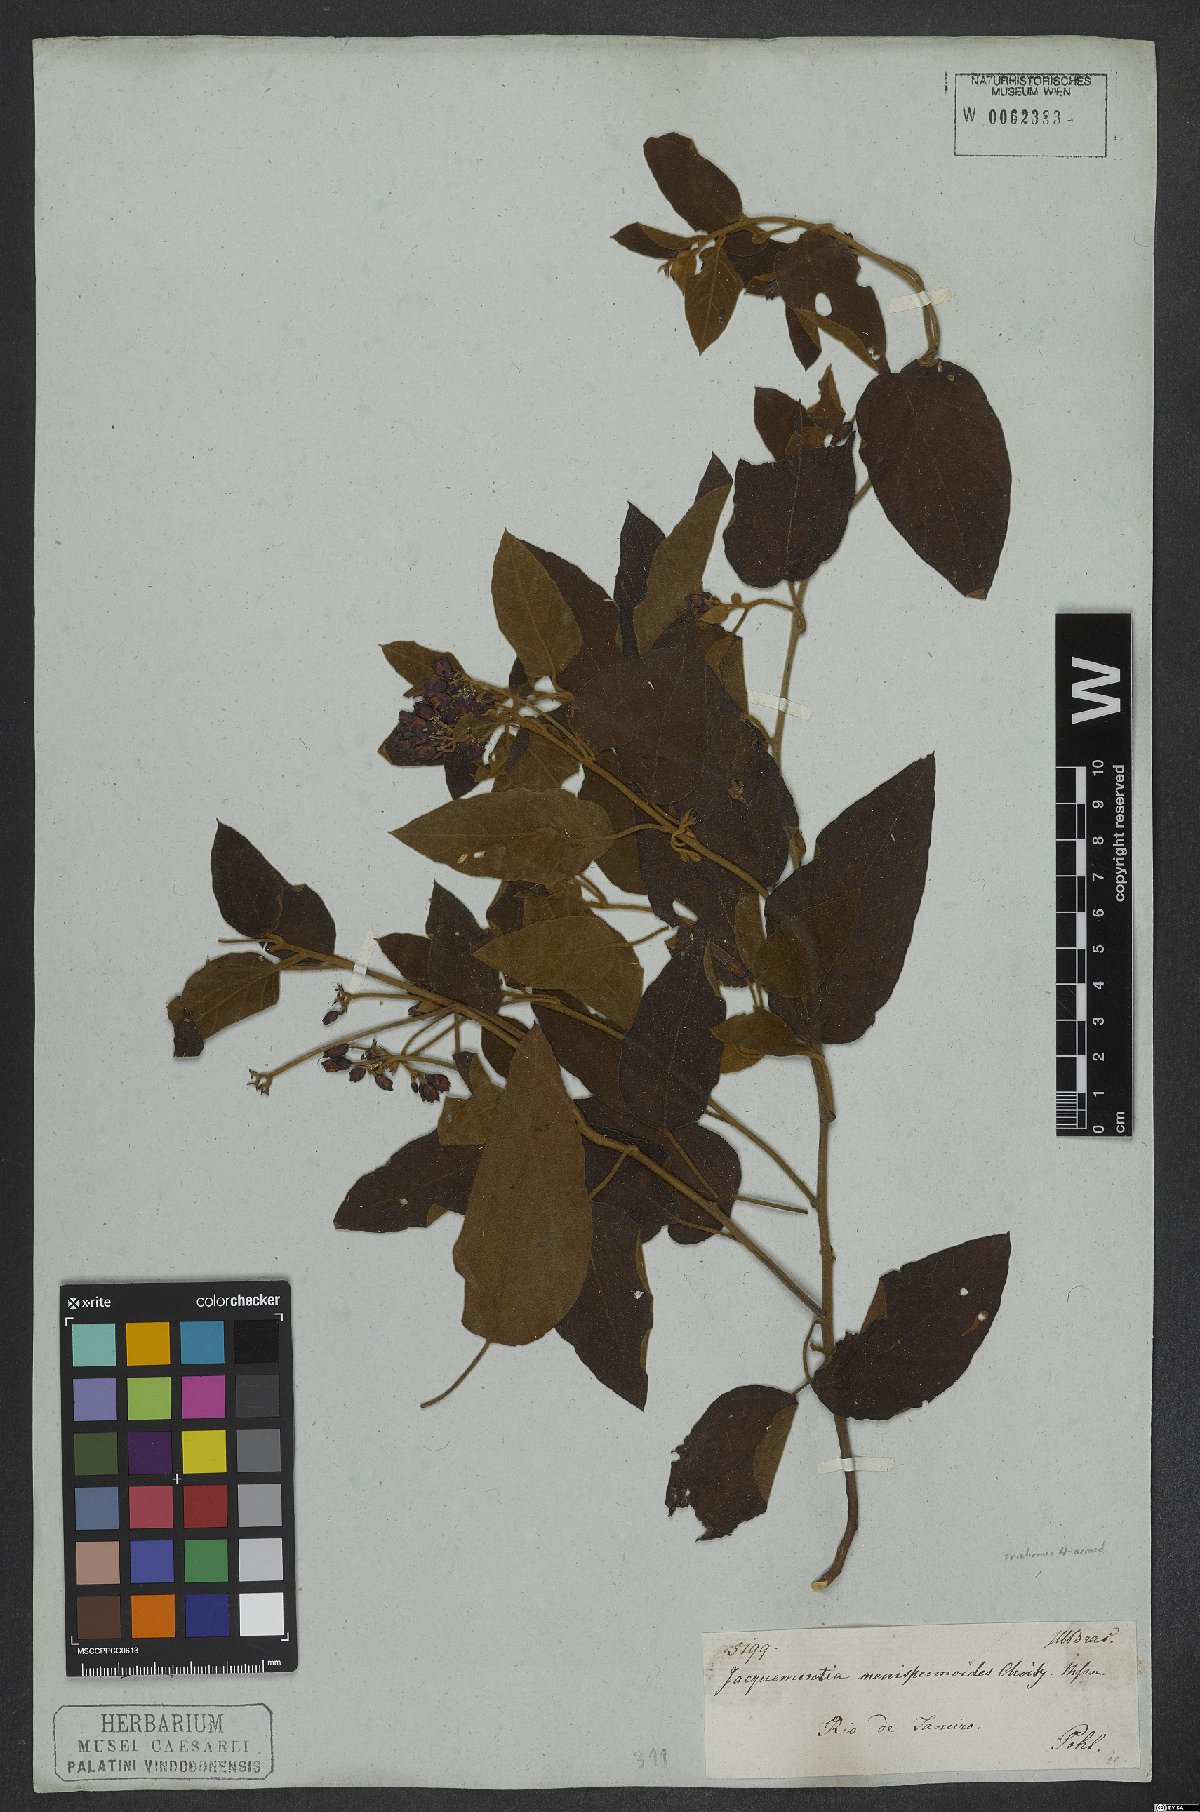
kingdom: Plantae
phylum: Tracheophyta
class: Magnoliopsida
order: Solanales
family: Convolvulaceae
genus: Jacquemontia
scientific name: Jacquemontia holosericea
